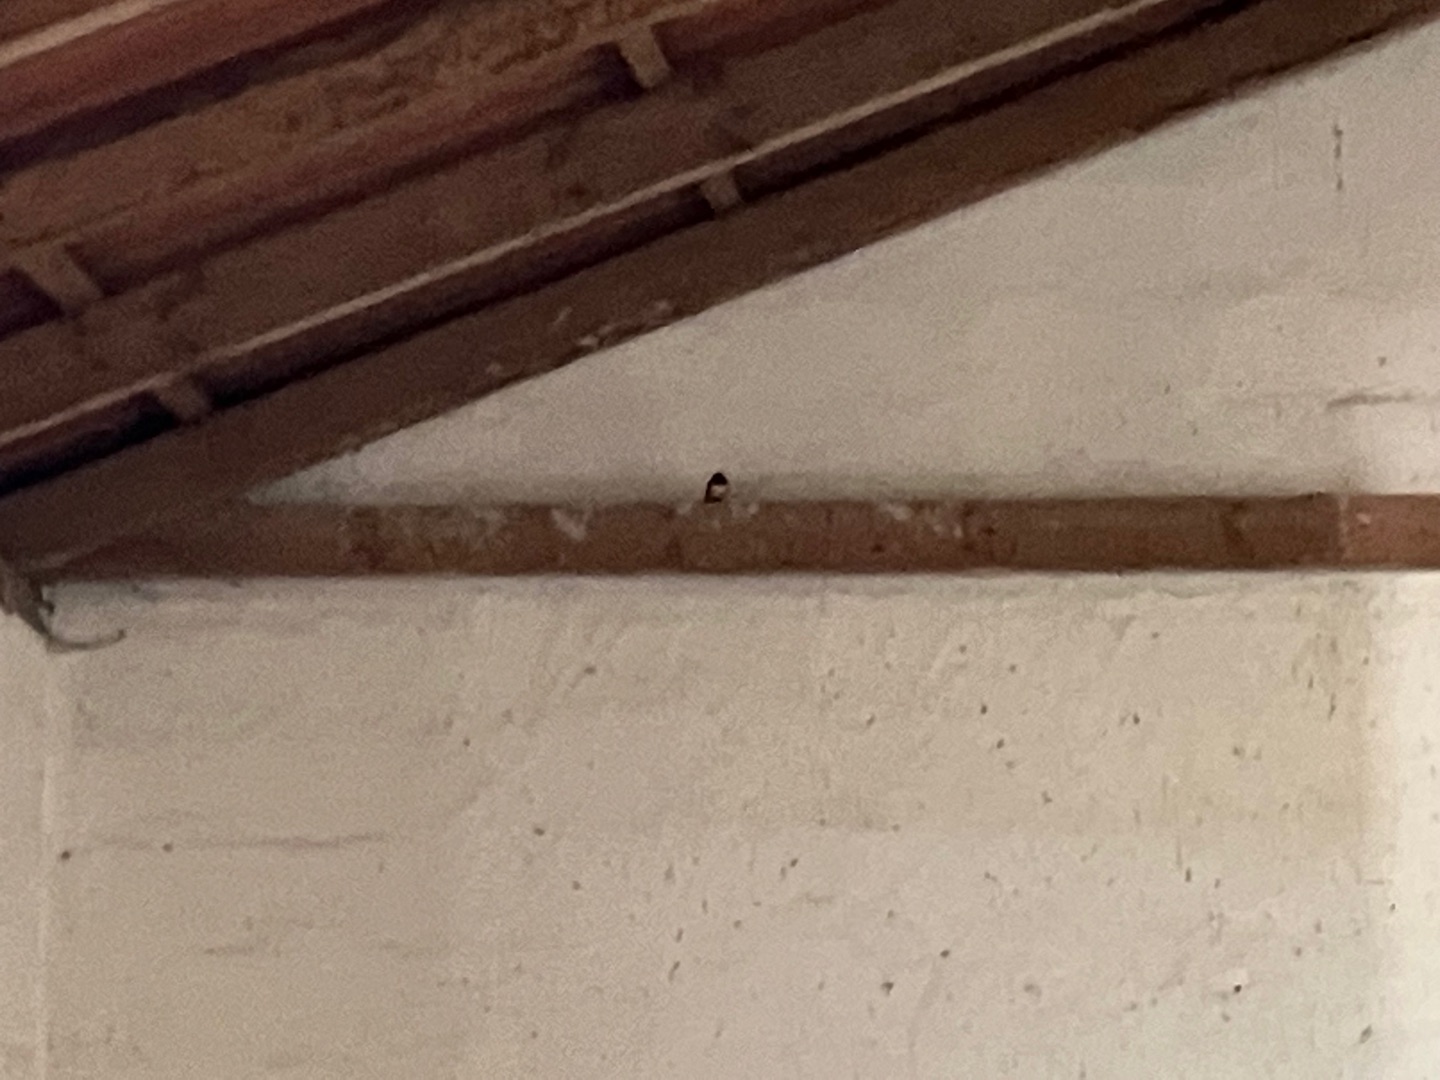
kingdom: Animalia
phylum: Chordata
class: Aves
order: Passeriformes
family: Hirundinidae
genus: Hirundo
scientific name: Hirundo rustica
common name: Landsvale
